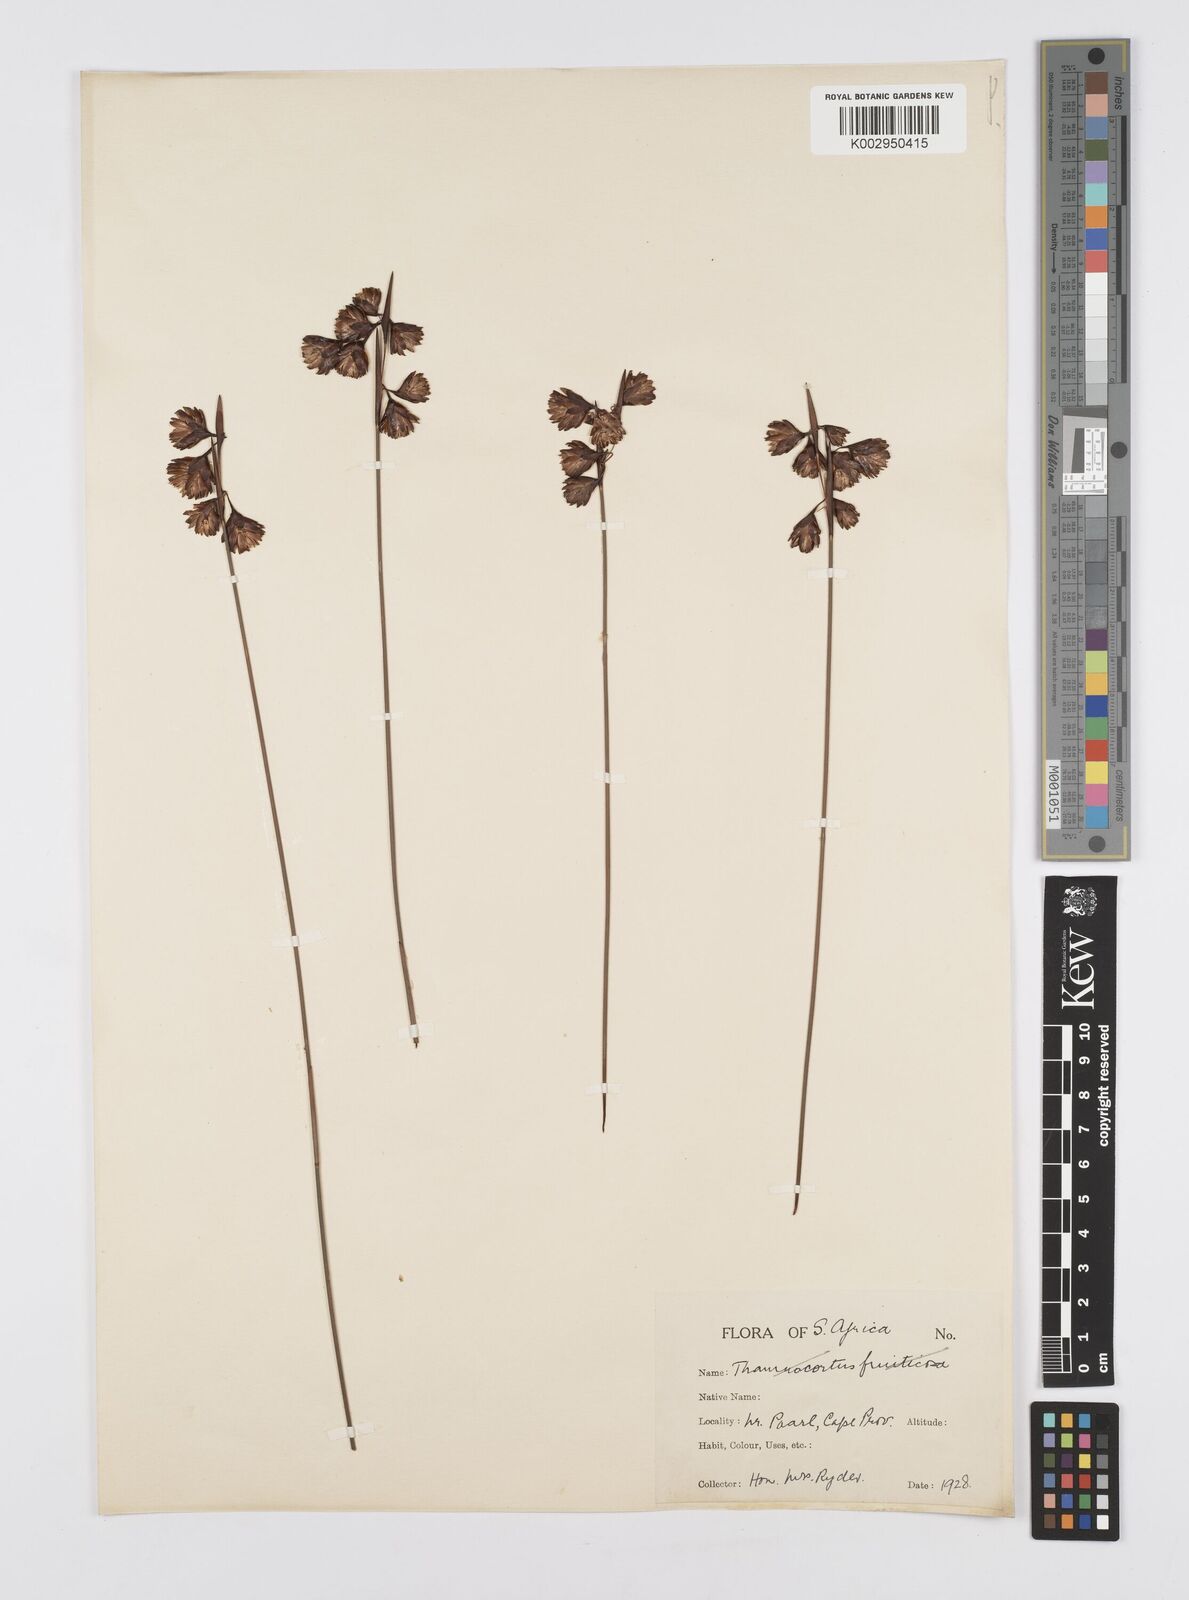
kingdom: Plantae
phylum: Tracheophyta
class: Liliopsida
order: Poales
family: Restionaceae
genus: Staberoha
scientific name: Staberoha
